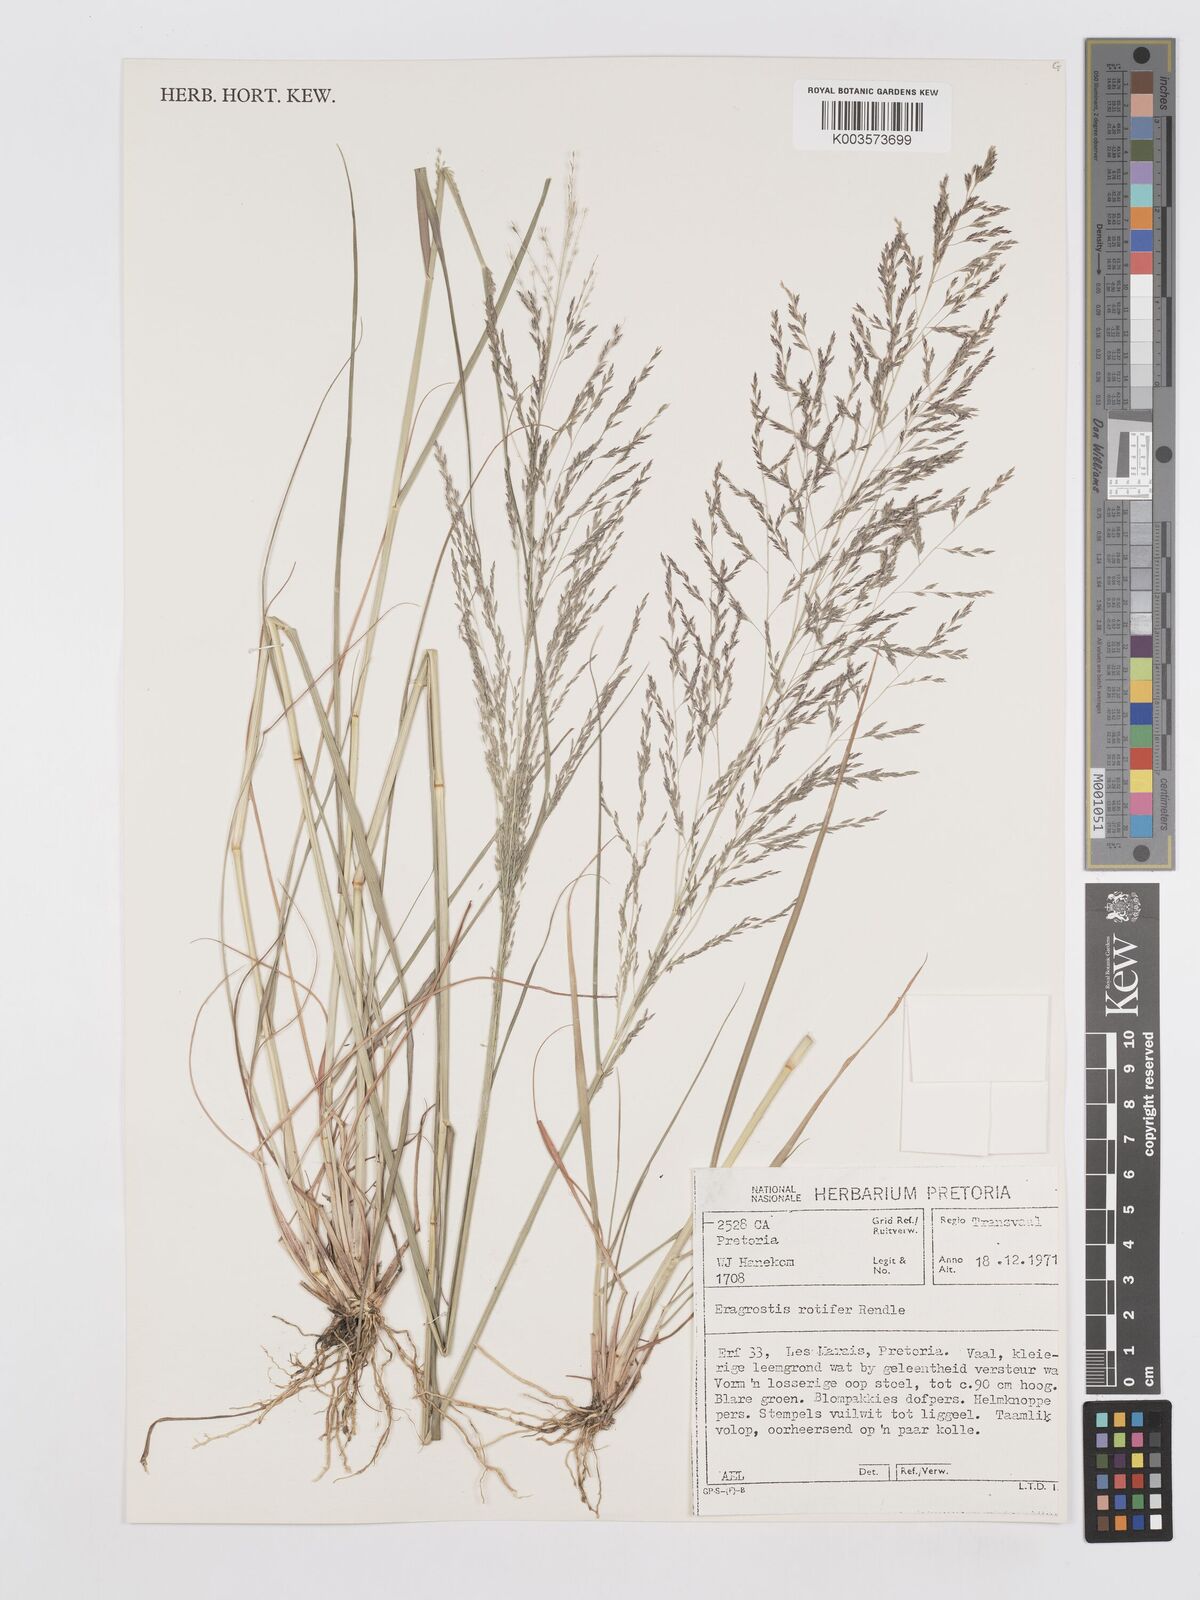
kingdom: Plantae
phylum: Tracheophyta
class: Liliopsida
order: Poales
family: Poaceae
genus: Eragrostis
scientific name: Eragrostis rotifer
